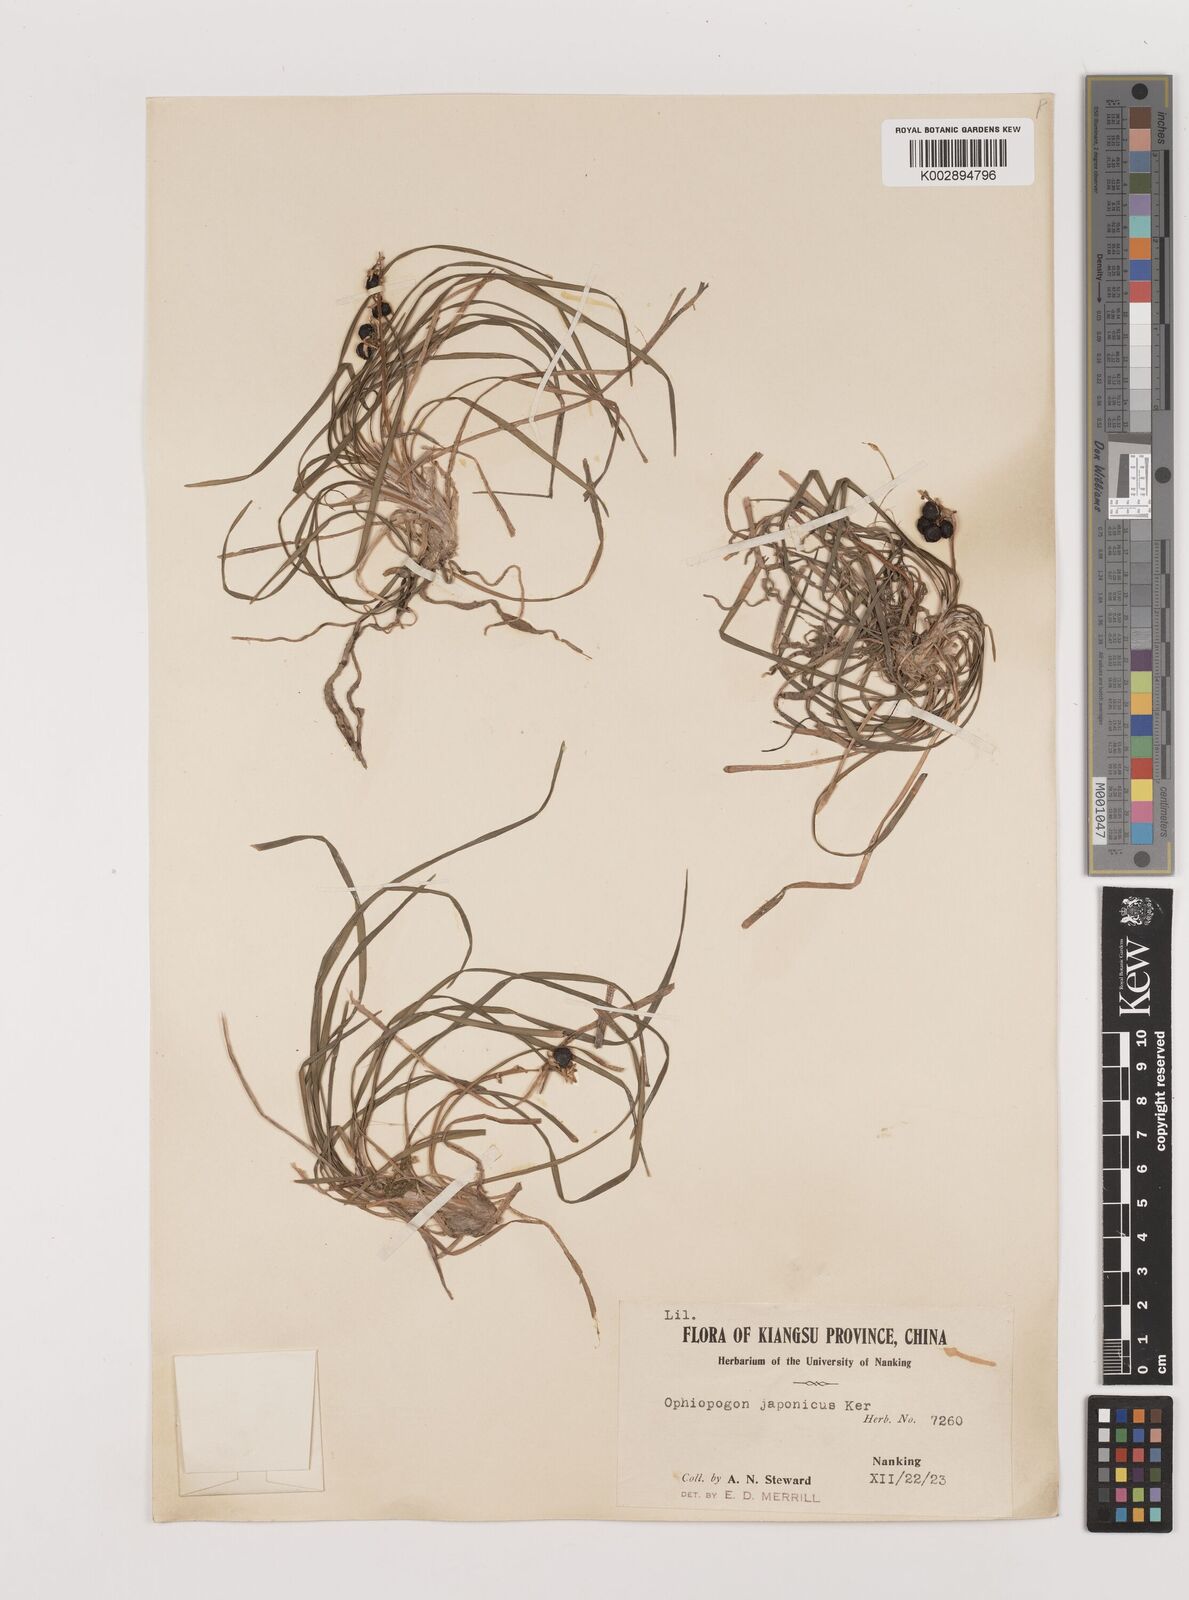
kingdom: Plantae
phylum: Tracheophyta
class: Liliopsida
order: Asparagales
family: Asparagaceae
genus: Ophiopogon
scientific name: Ophiopogon japonicus
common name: Dwarf lilyturf
